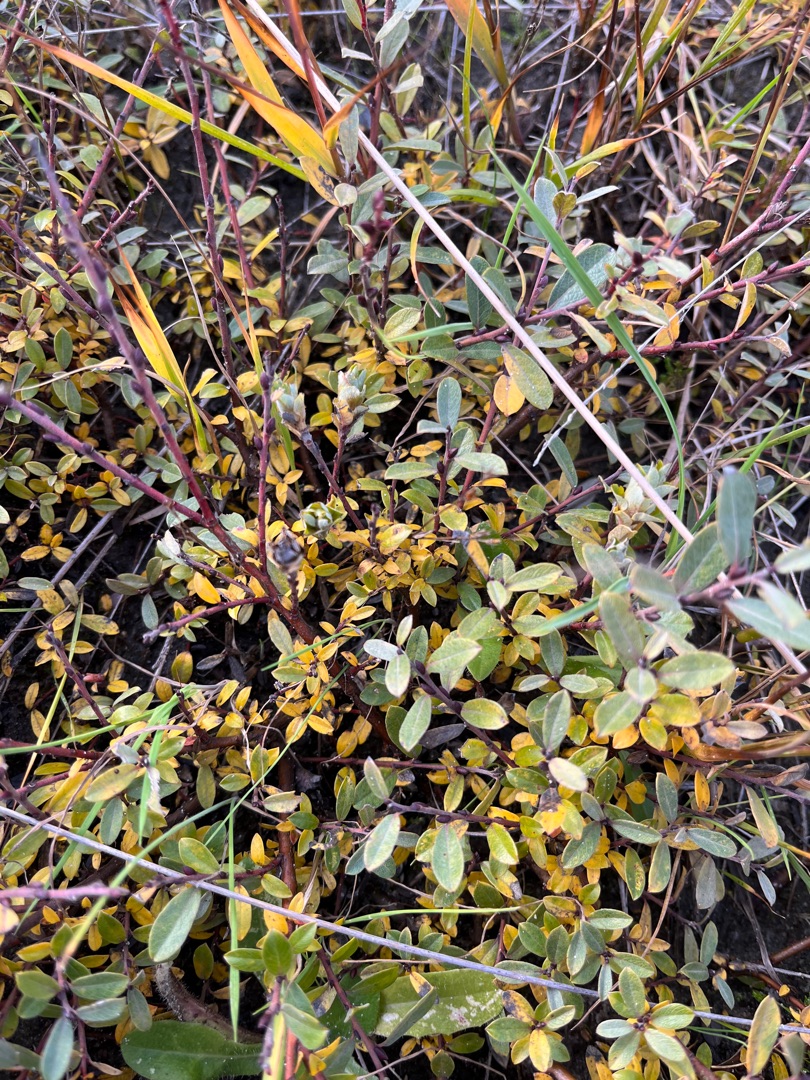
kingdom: Plantae
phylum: Tracheophyta
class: Magnoliopsida
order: Malpighiales
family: Salicaceae
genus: Salix
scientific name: Salix repens
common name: Krybende pil
